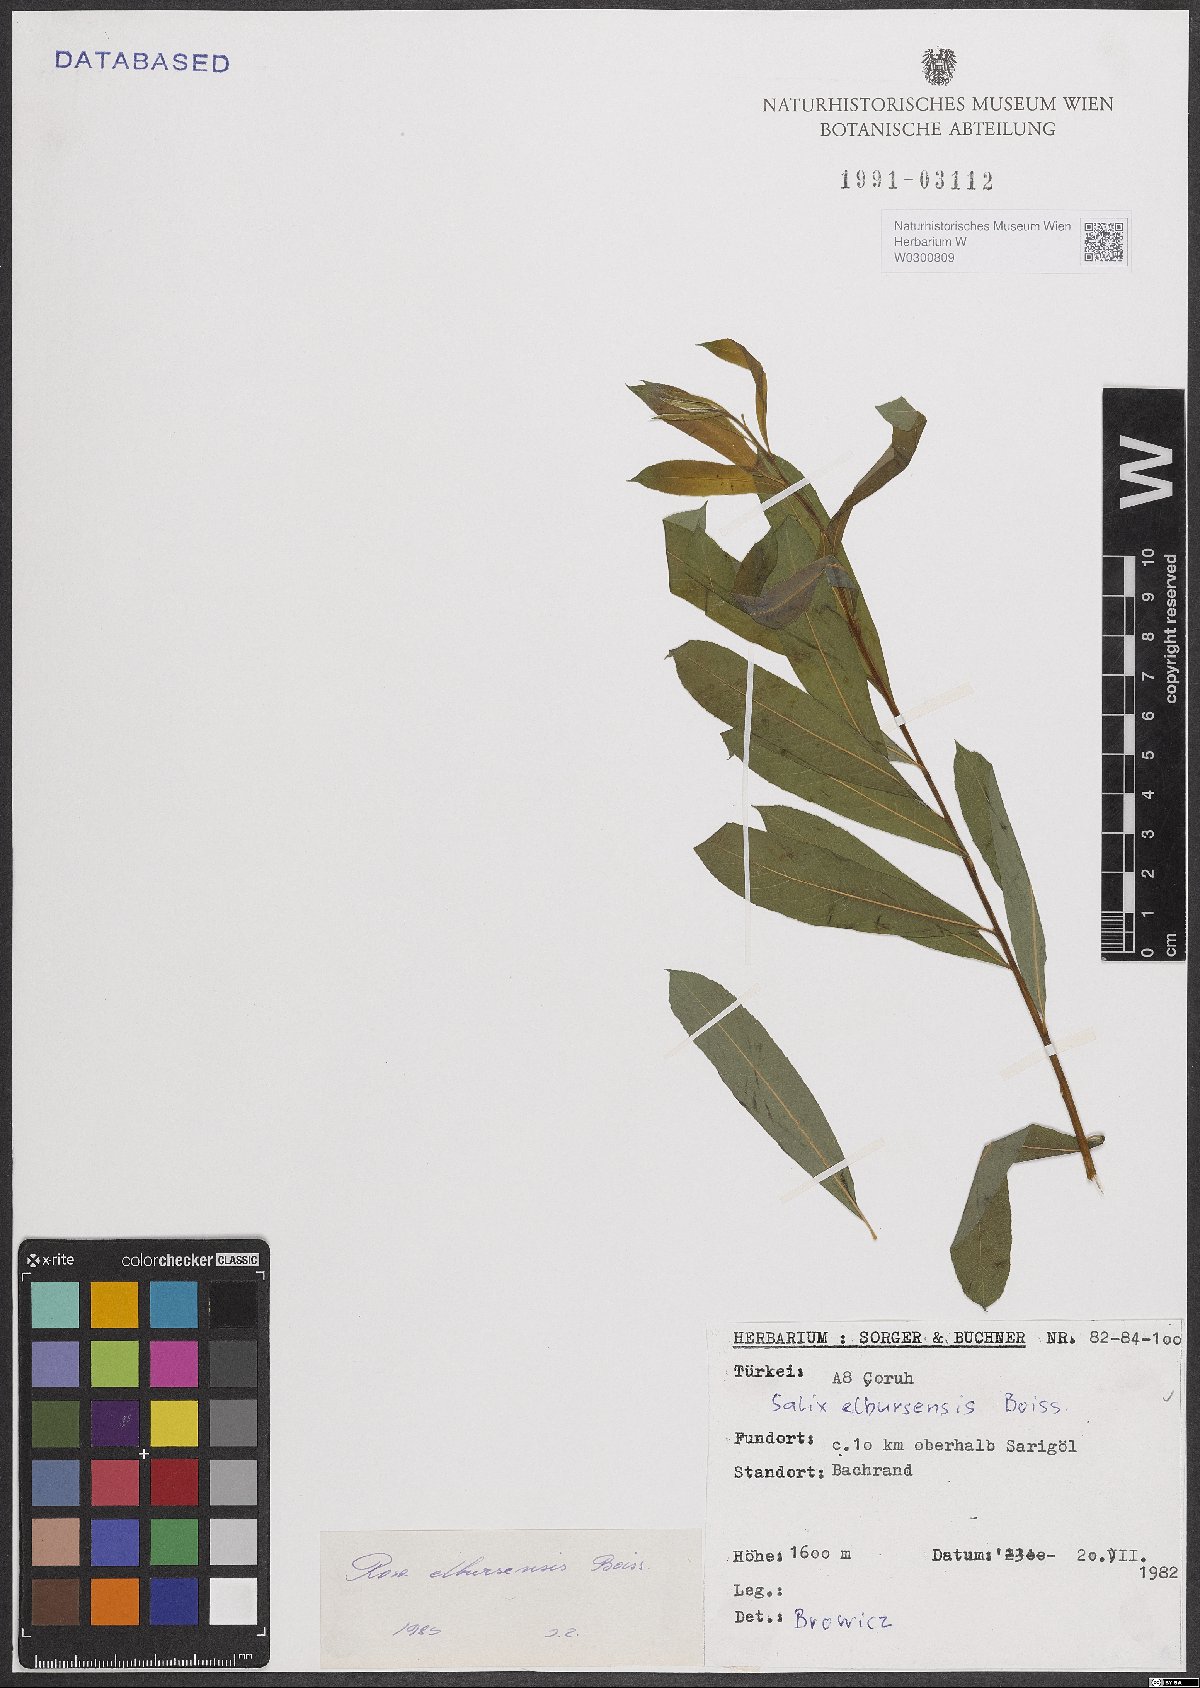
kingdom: Plantae
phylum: Tracheophyta
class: Magnoliopsida
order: Malpighiales
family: Salicaceae
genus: Salix
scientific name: Salix elbursensis
